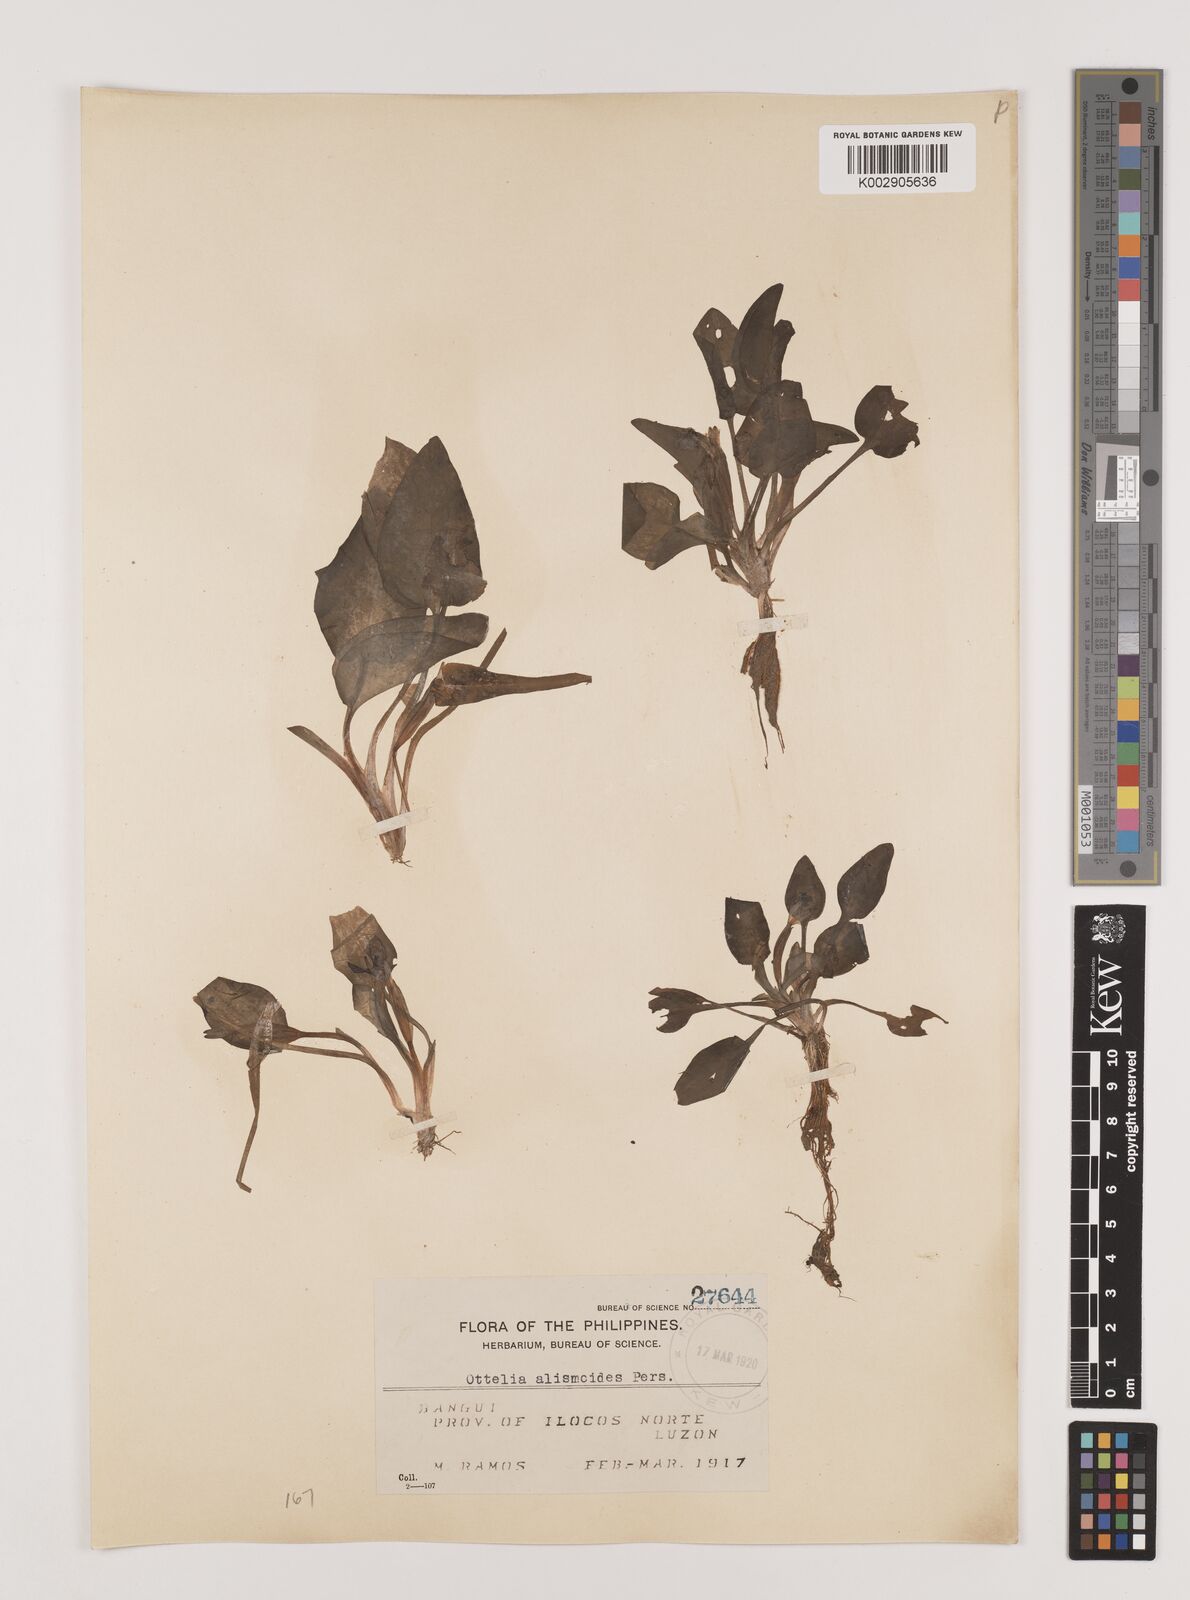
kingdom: Plantae
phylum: Tracheophyta
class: Liliopsida
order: Alismatales
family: Hydrocharitaceae
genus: Ottelia
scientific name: Ottelia alismoides
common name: Duck-lettuce
